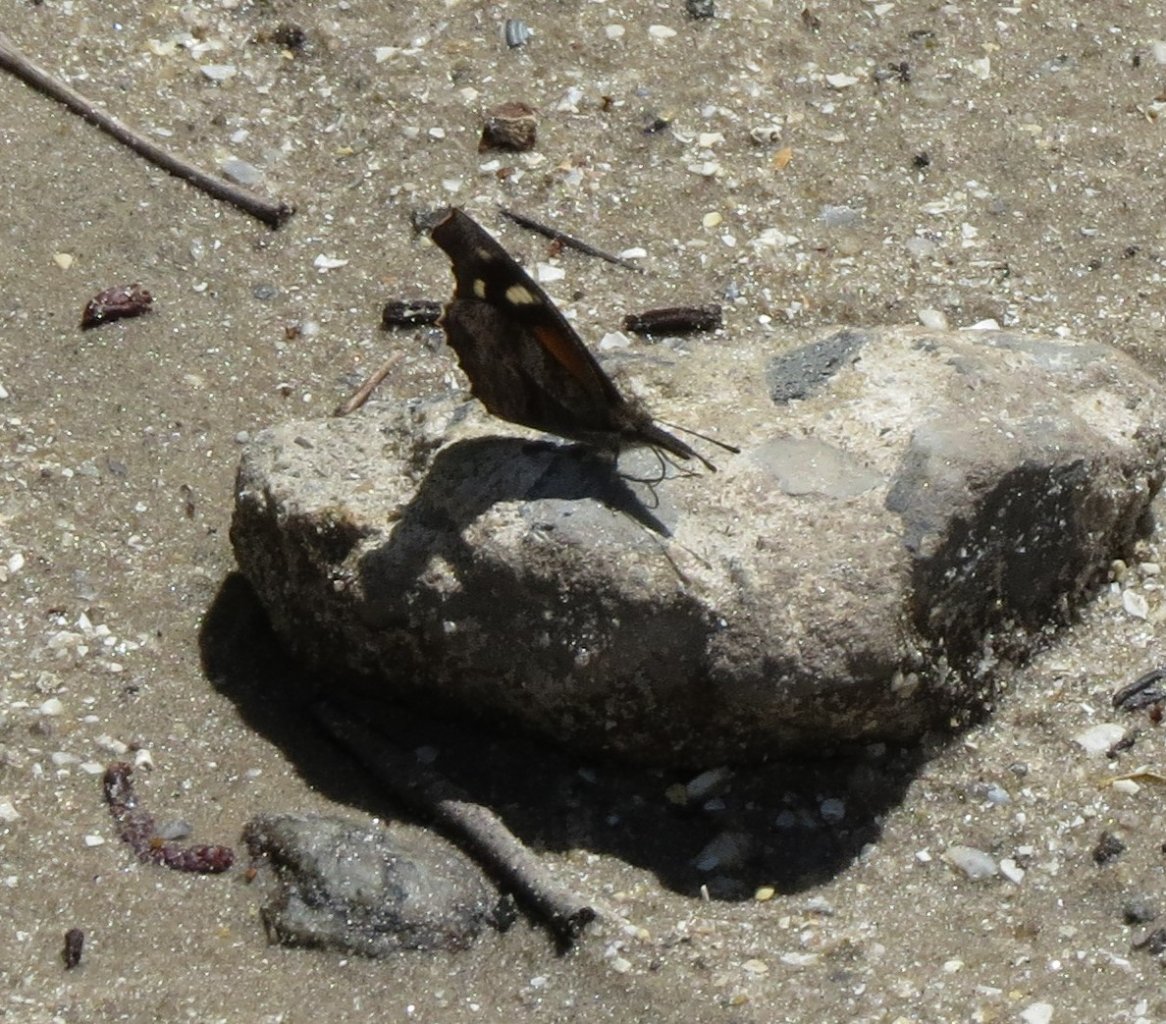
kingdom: Animalia
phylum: Arthropoda
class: Insecta
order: Lepidoptera
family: Nymphalidae
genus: Libytheana
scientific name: Libytheana carinenta
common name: American Snout
